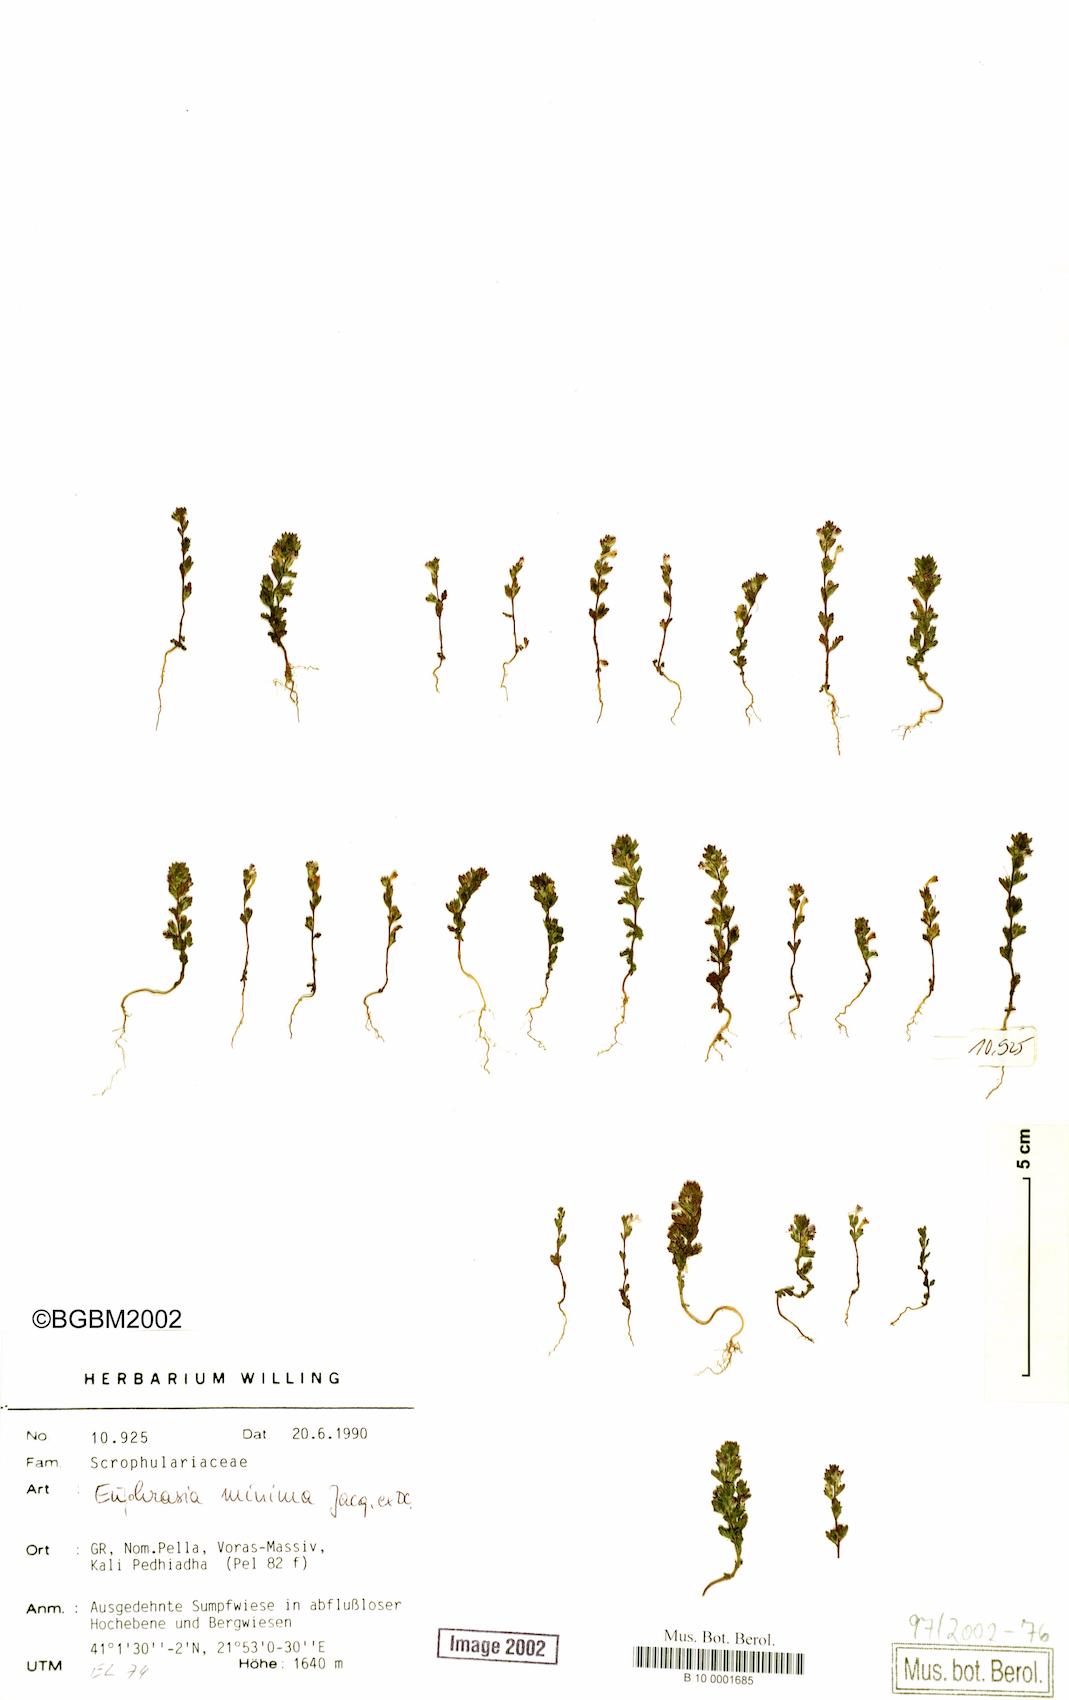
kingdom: Plantae
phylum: Tracheophyta
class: Magnoliopsida
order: Lamiales
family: Orobanchaceae
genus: Euphrasia
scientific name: Euphrasia minima
